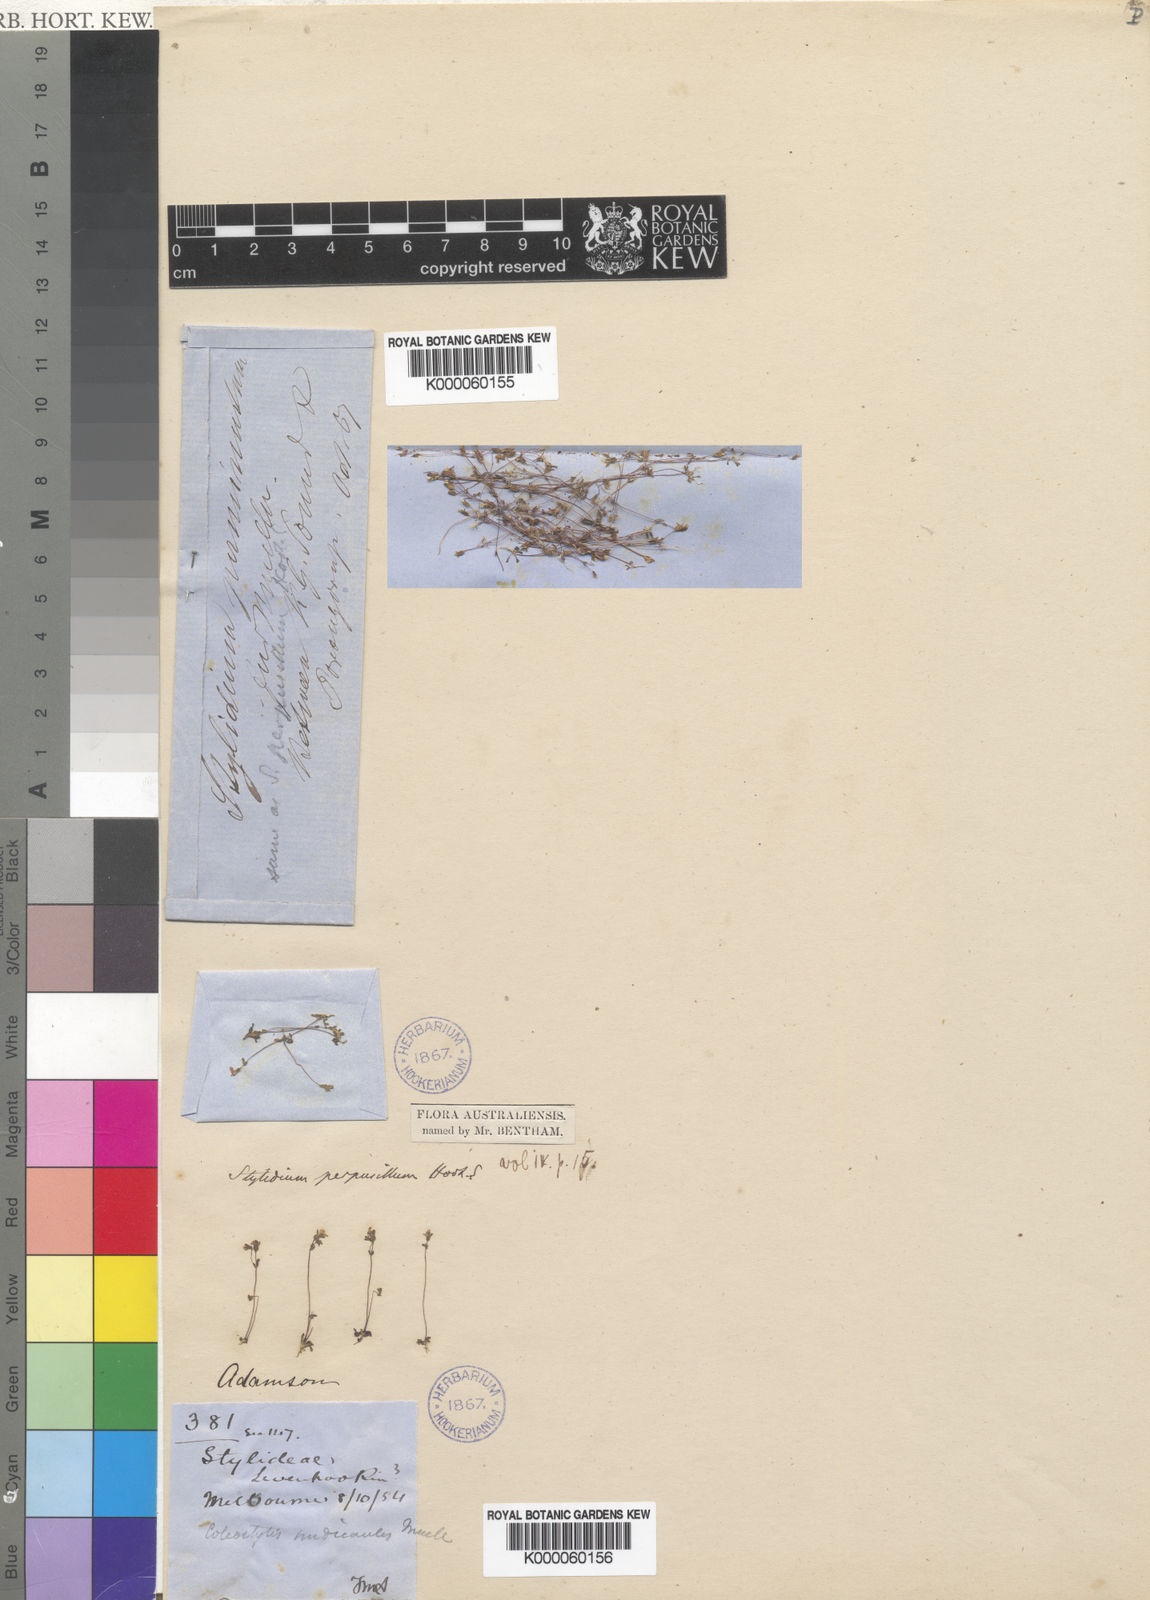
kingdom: Plantae
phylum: Tracheophyta
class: Magnoliopsida
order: Asterales
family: Stylidiaceae
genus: Stylidium
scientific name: Stylidium perpusillum
